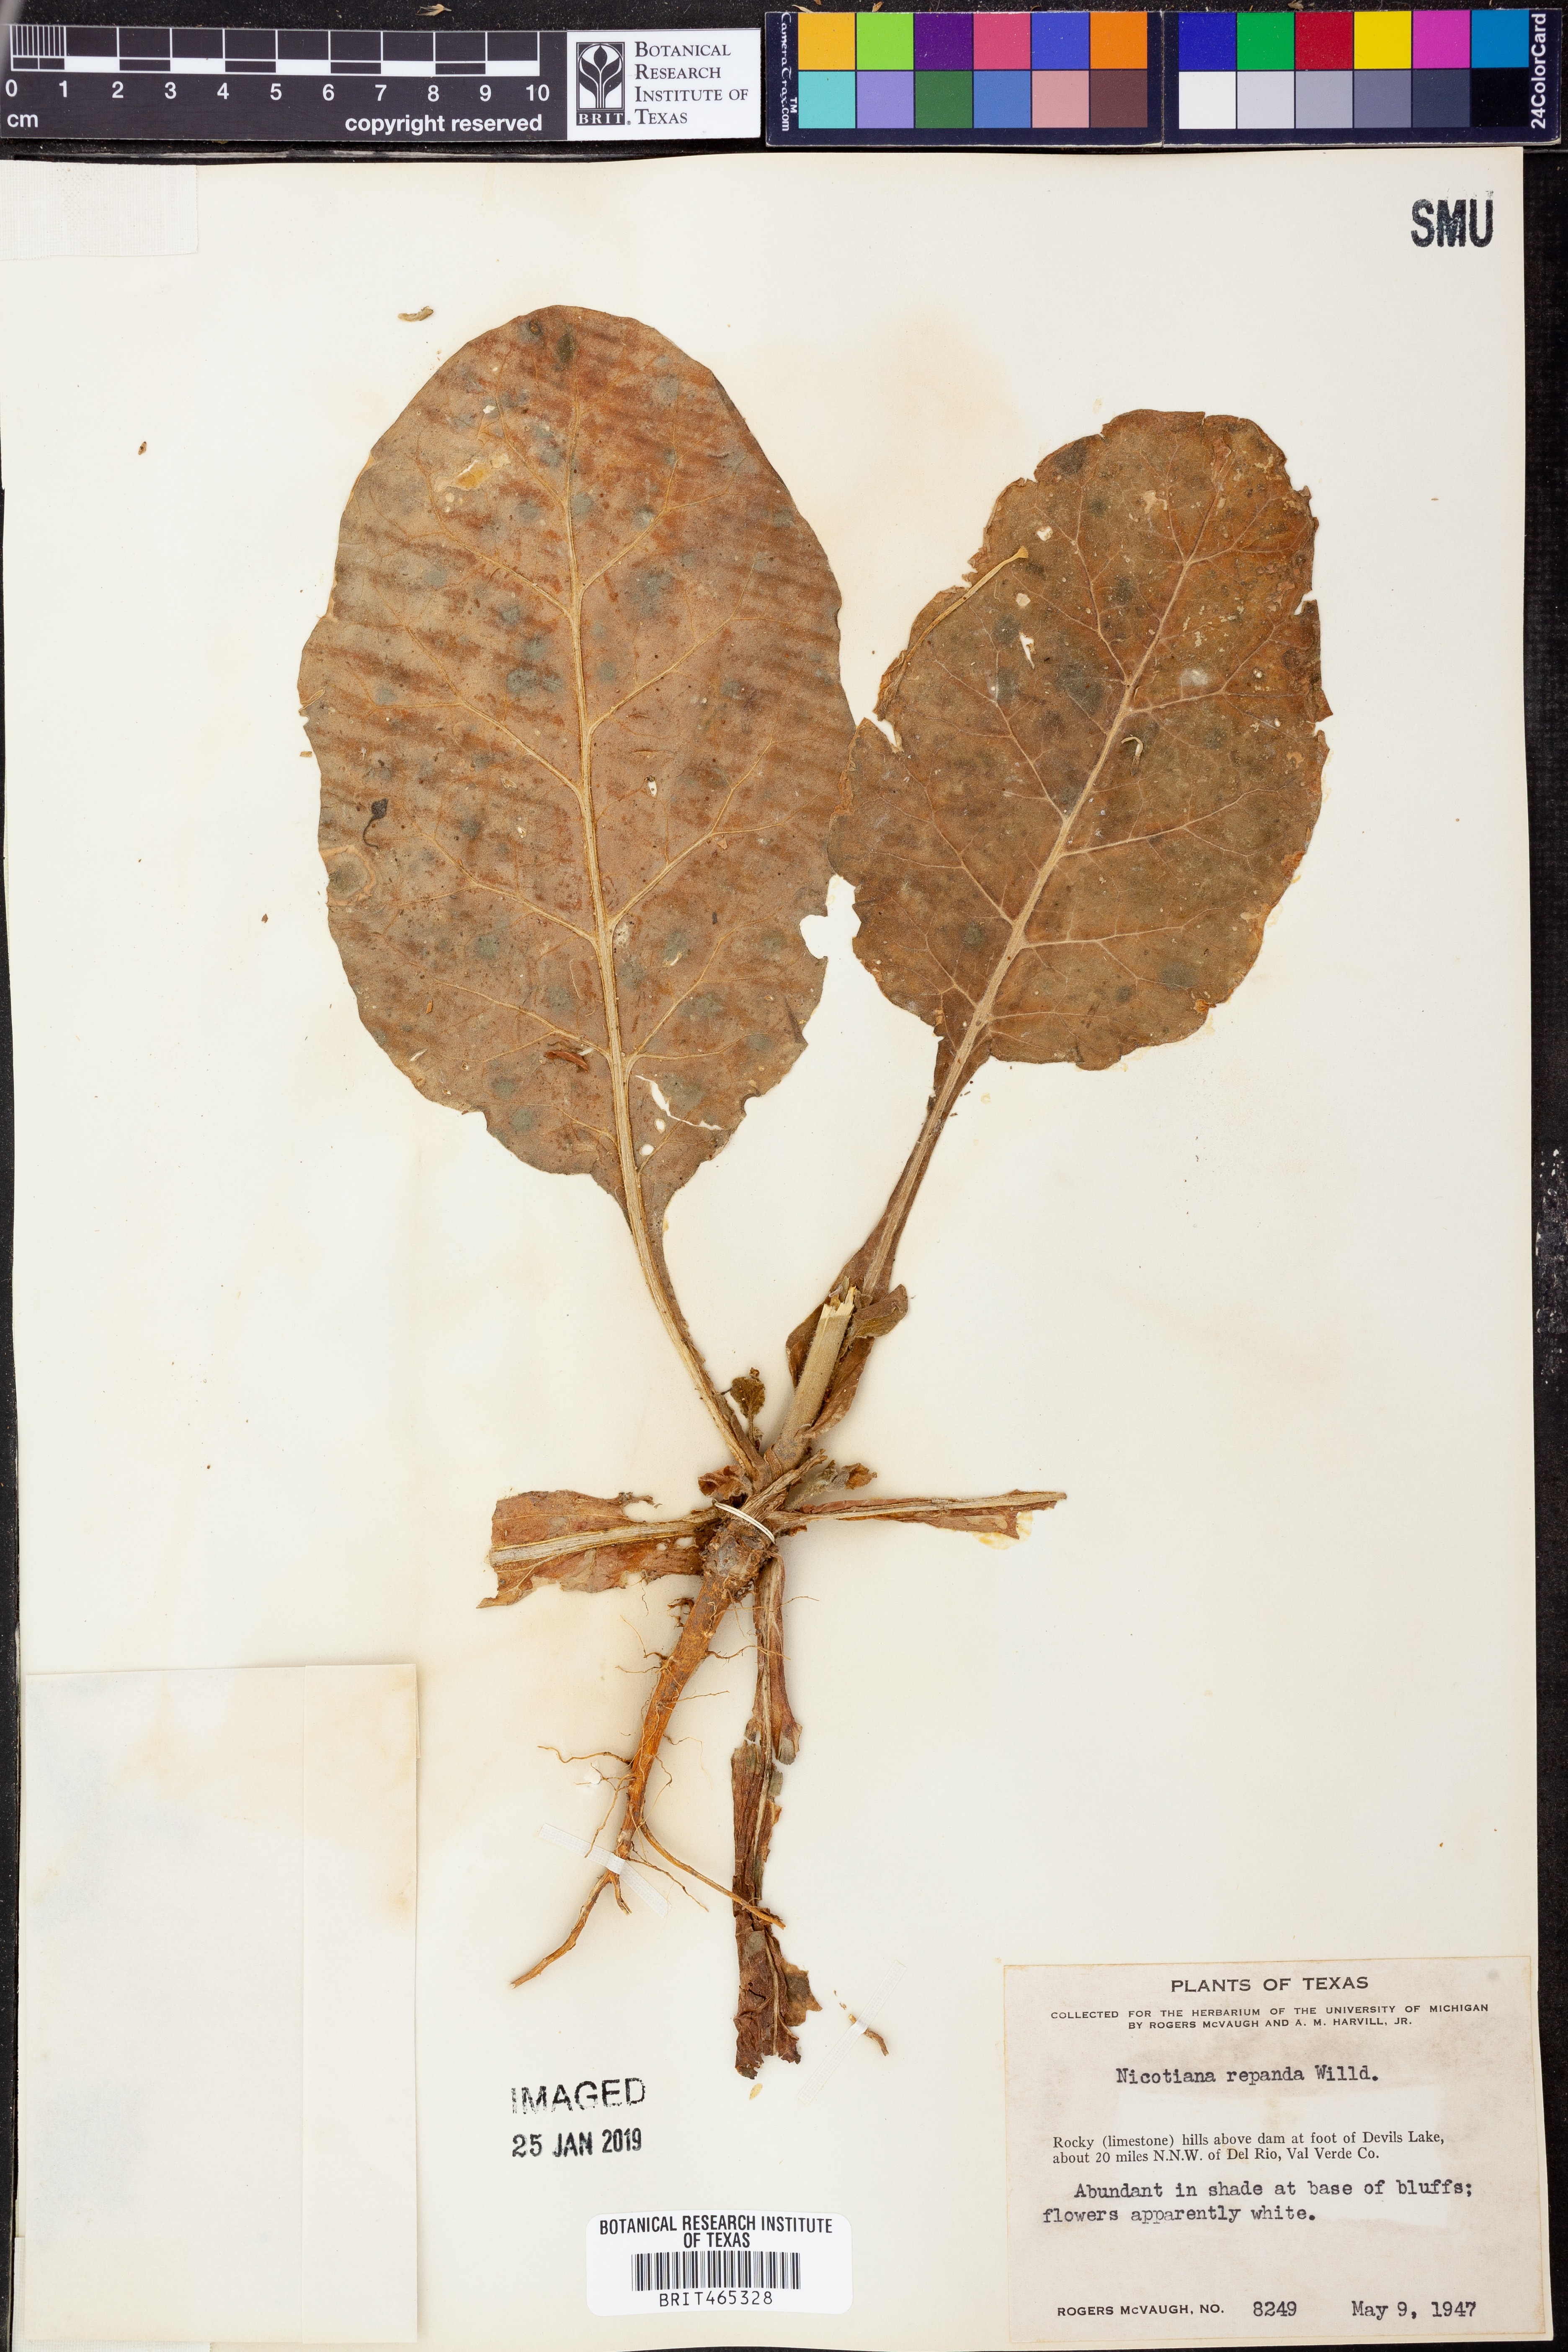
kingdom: Plantae
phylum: Tracheophyta
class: Magnoliopsida
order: Solanales
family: Solanaceae
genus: Nicotiana
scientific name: Nicotiana repanda
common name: Fiddle-leaf tobacco
